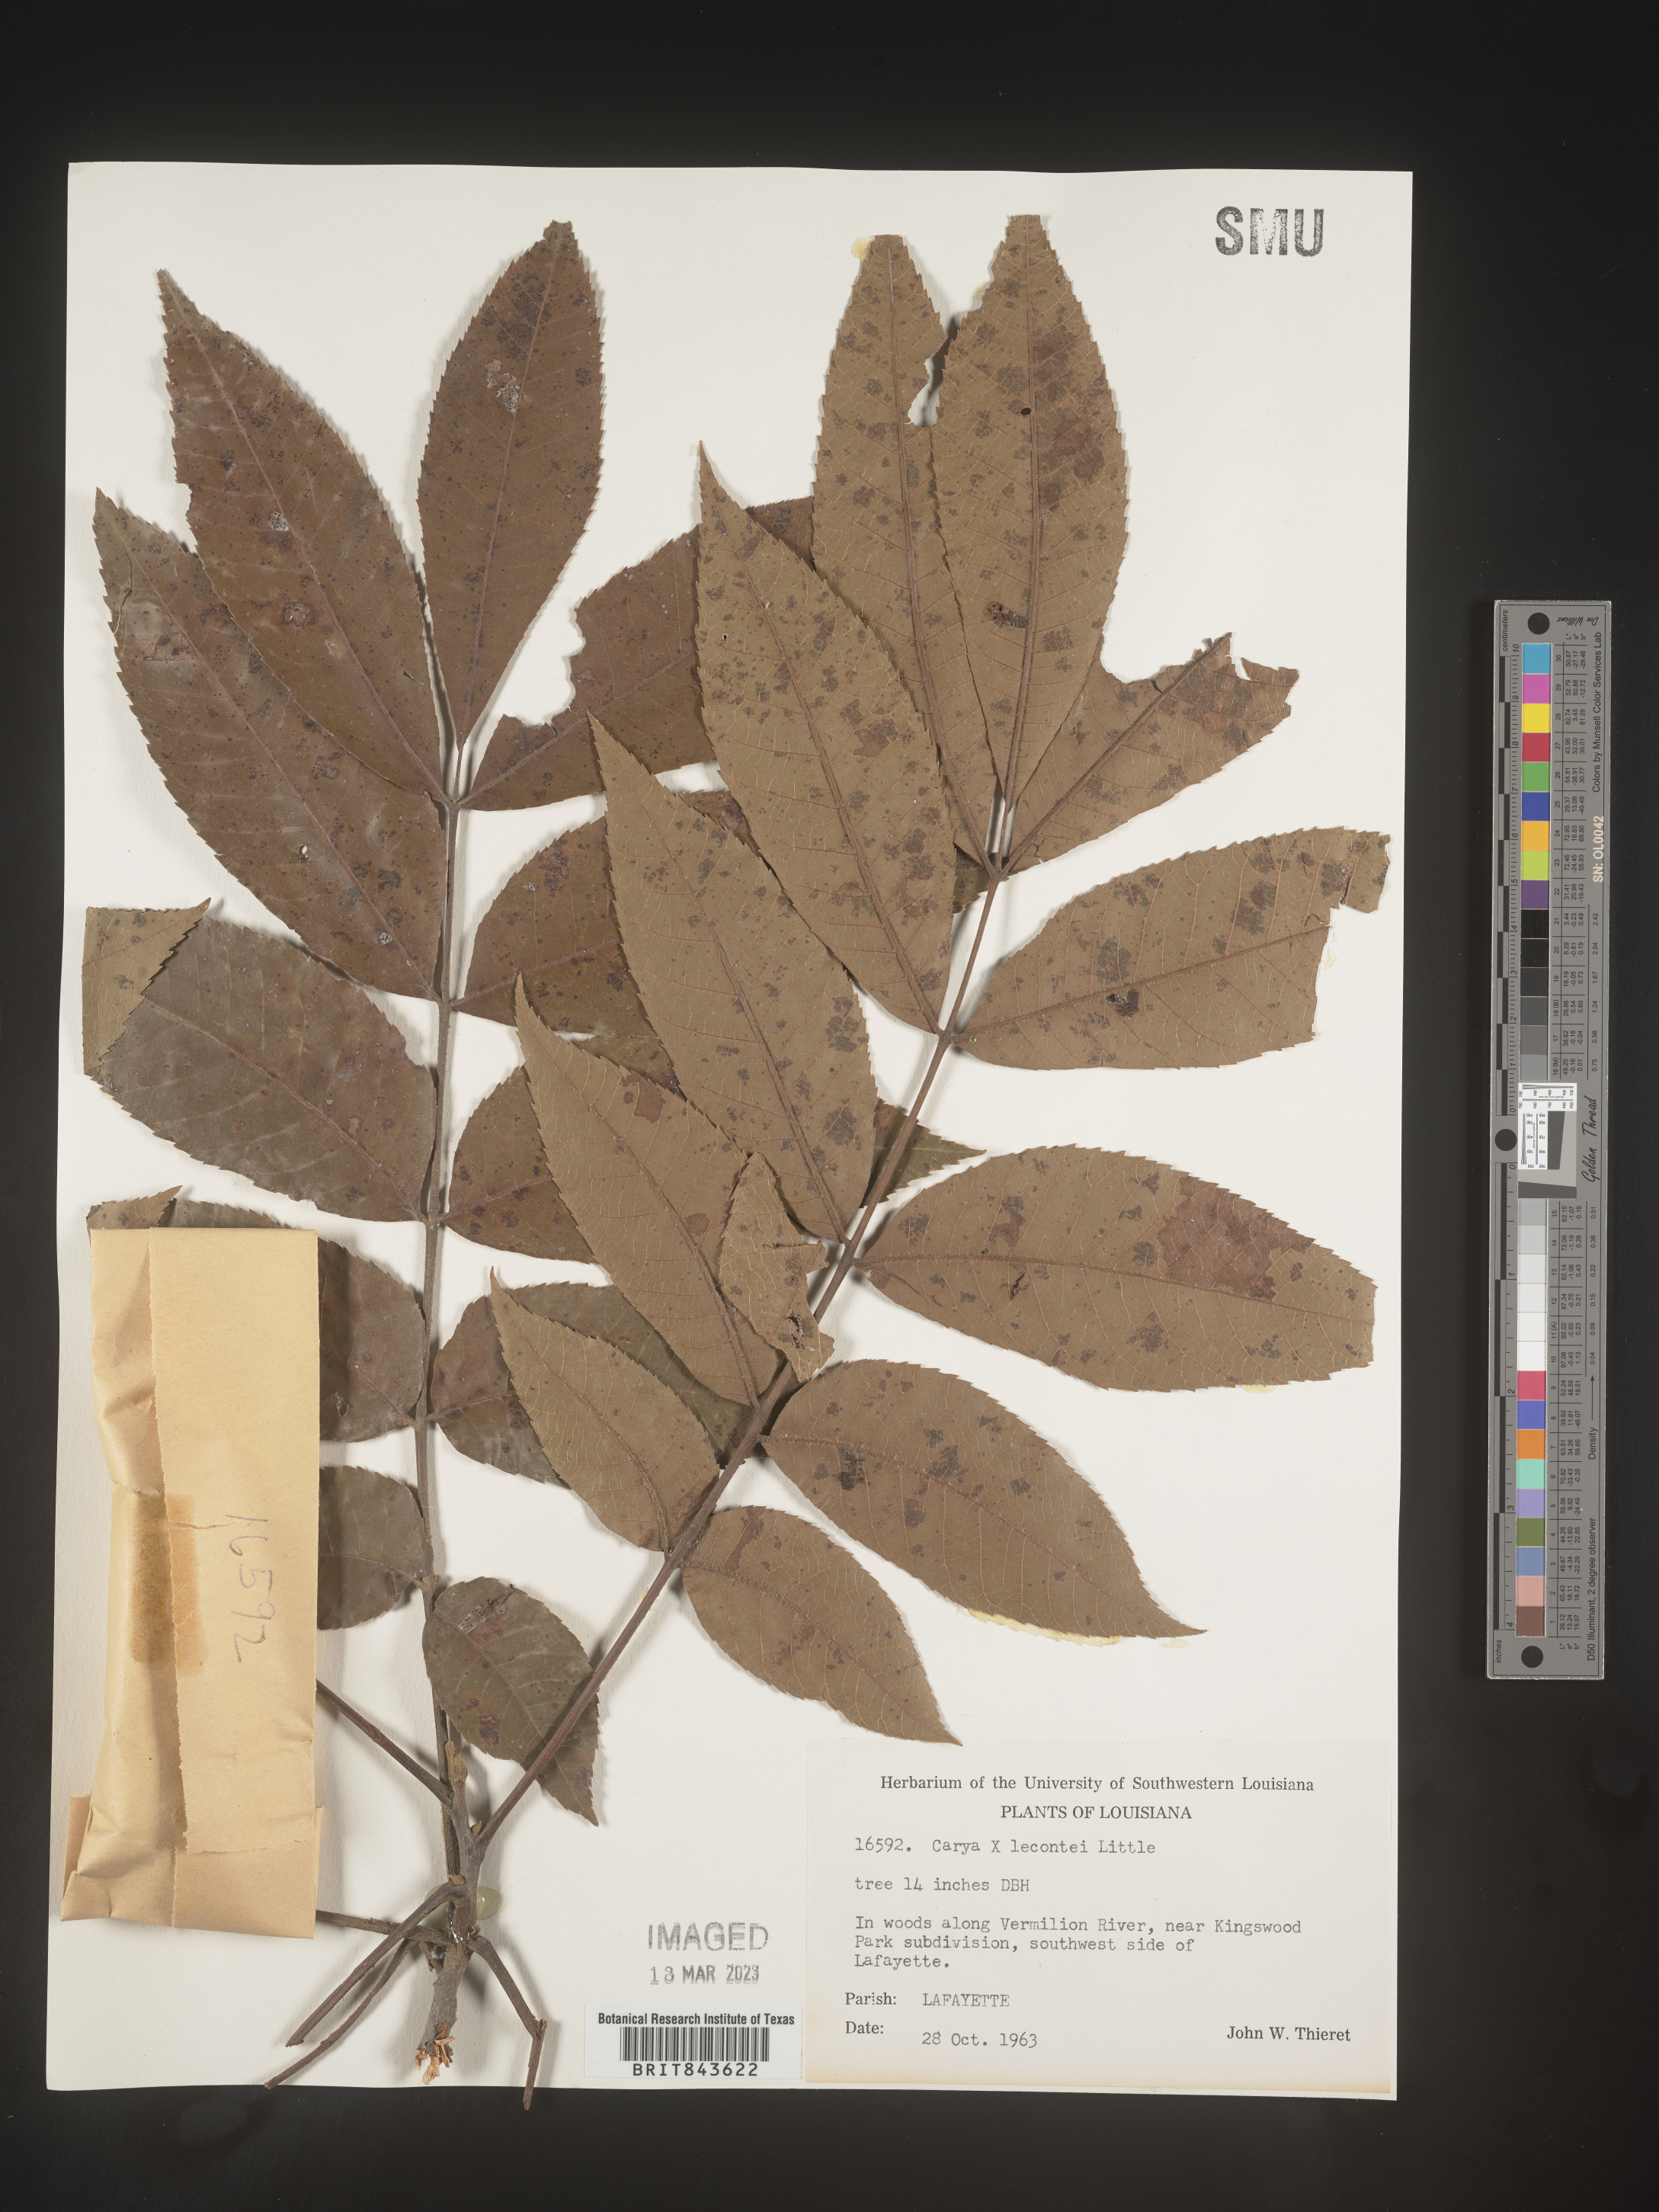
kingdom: Plantae
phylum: Tracheophyta
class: Magnoliopsida
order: Fagales
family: Juglandaceae
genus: Carya
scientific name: Carya
